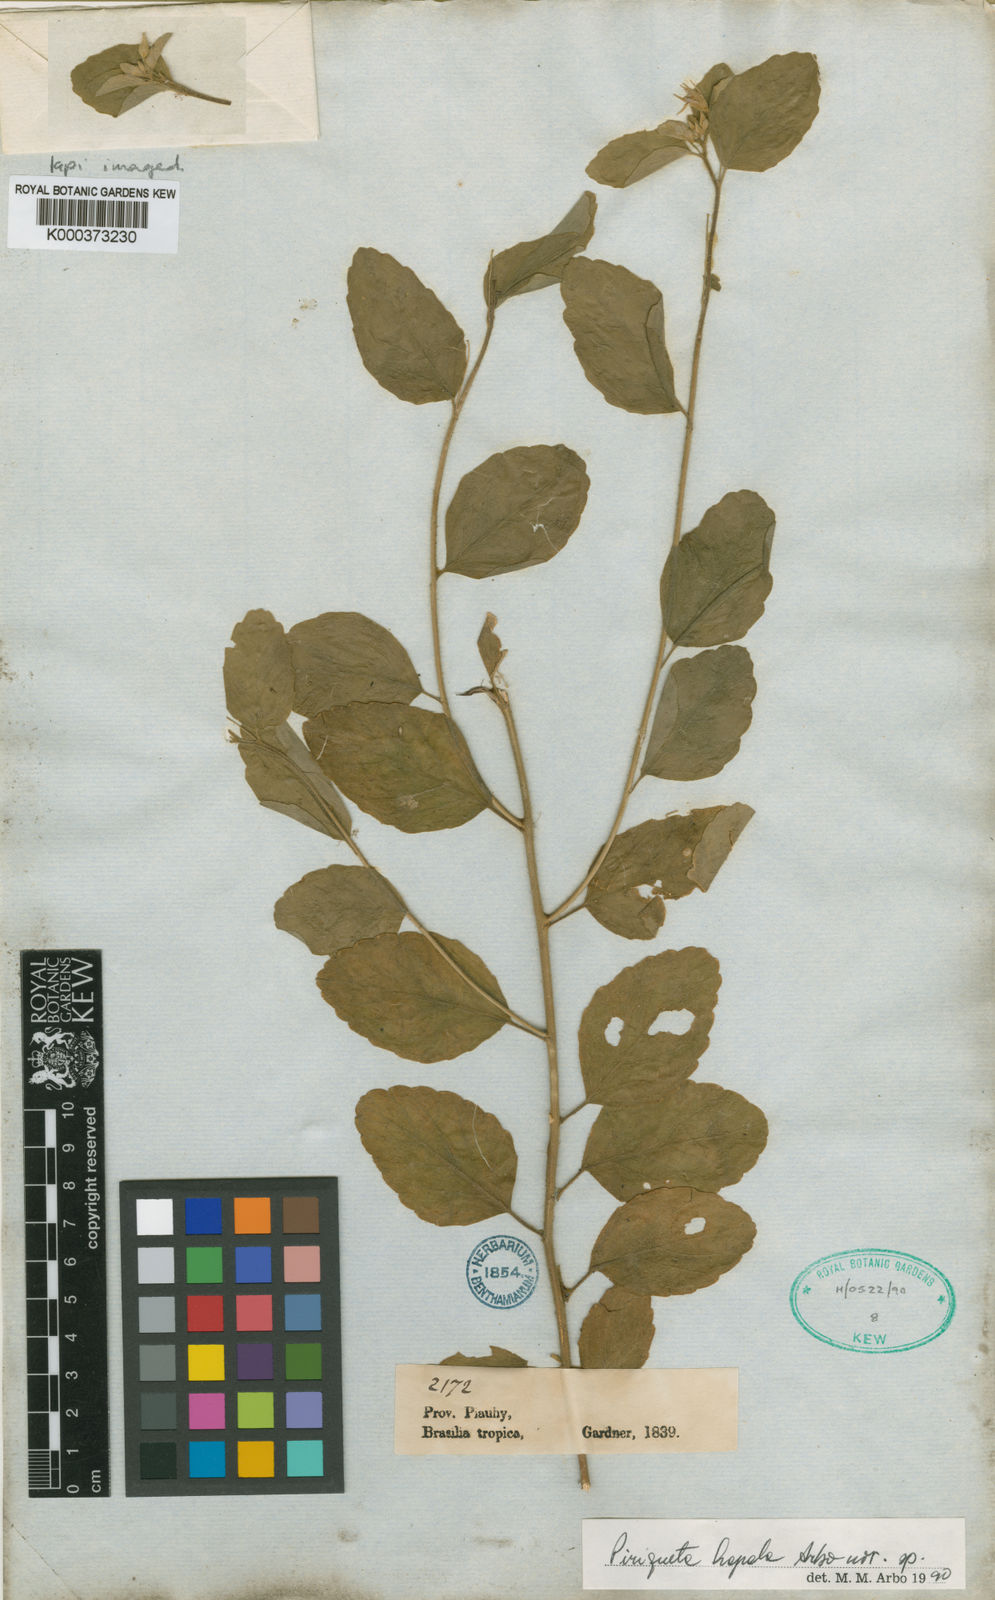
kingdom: Plantae
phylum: Tracheophyta
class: Magnoliopsida
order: Malpighiales
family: Turneraceae
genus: Piriqueta
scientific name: Piriqueta hapala
